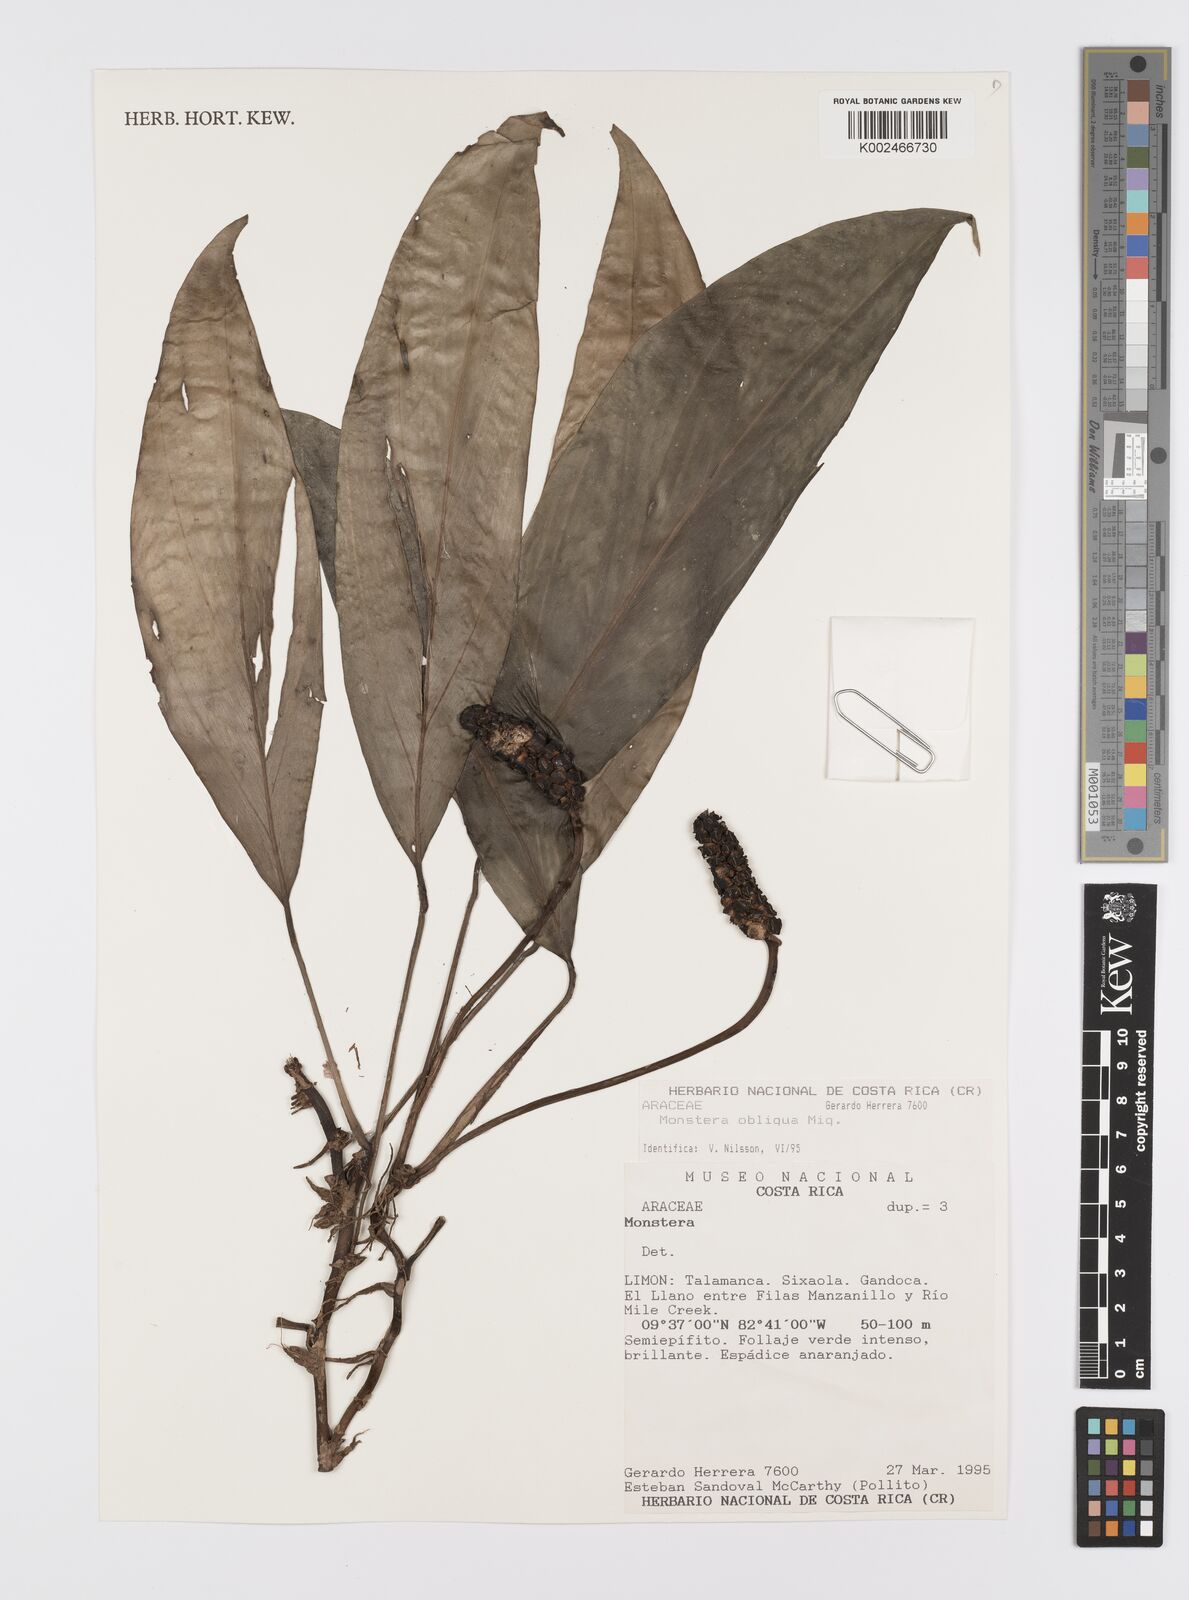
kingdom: Plantae
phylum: Tracheophyta
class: Liliopsida
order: Alismatales
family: Araceae
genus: Monstera
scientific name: Monstera obliqua
